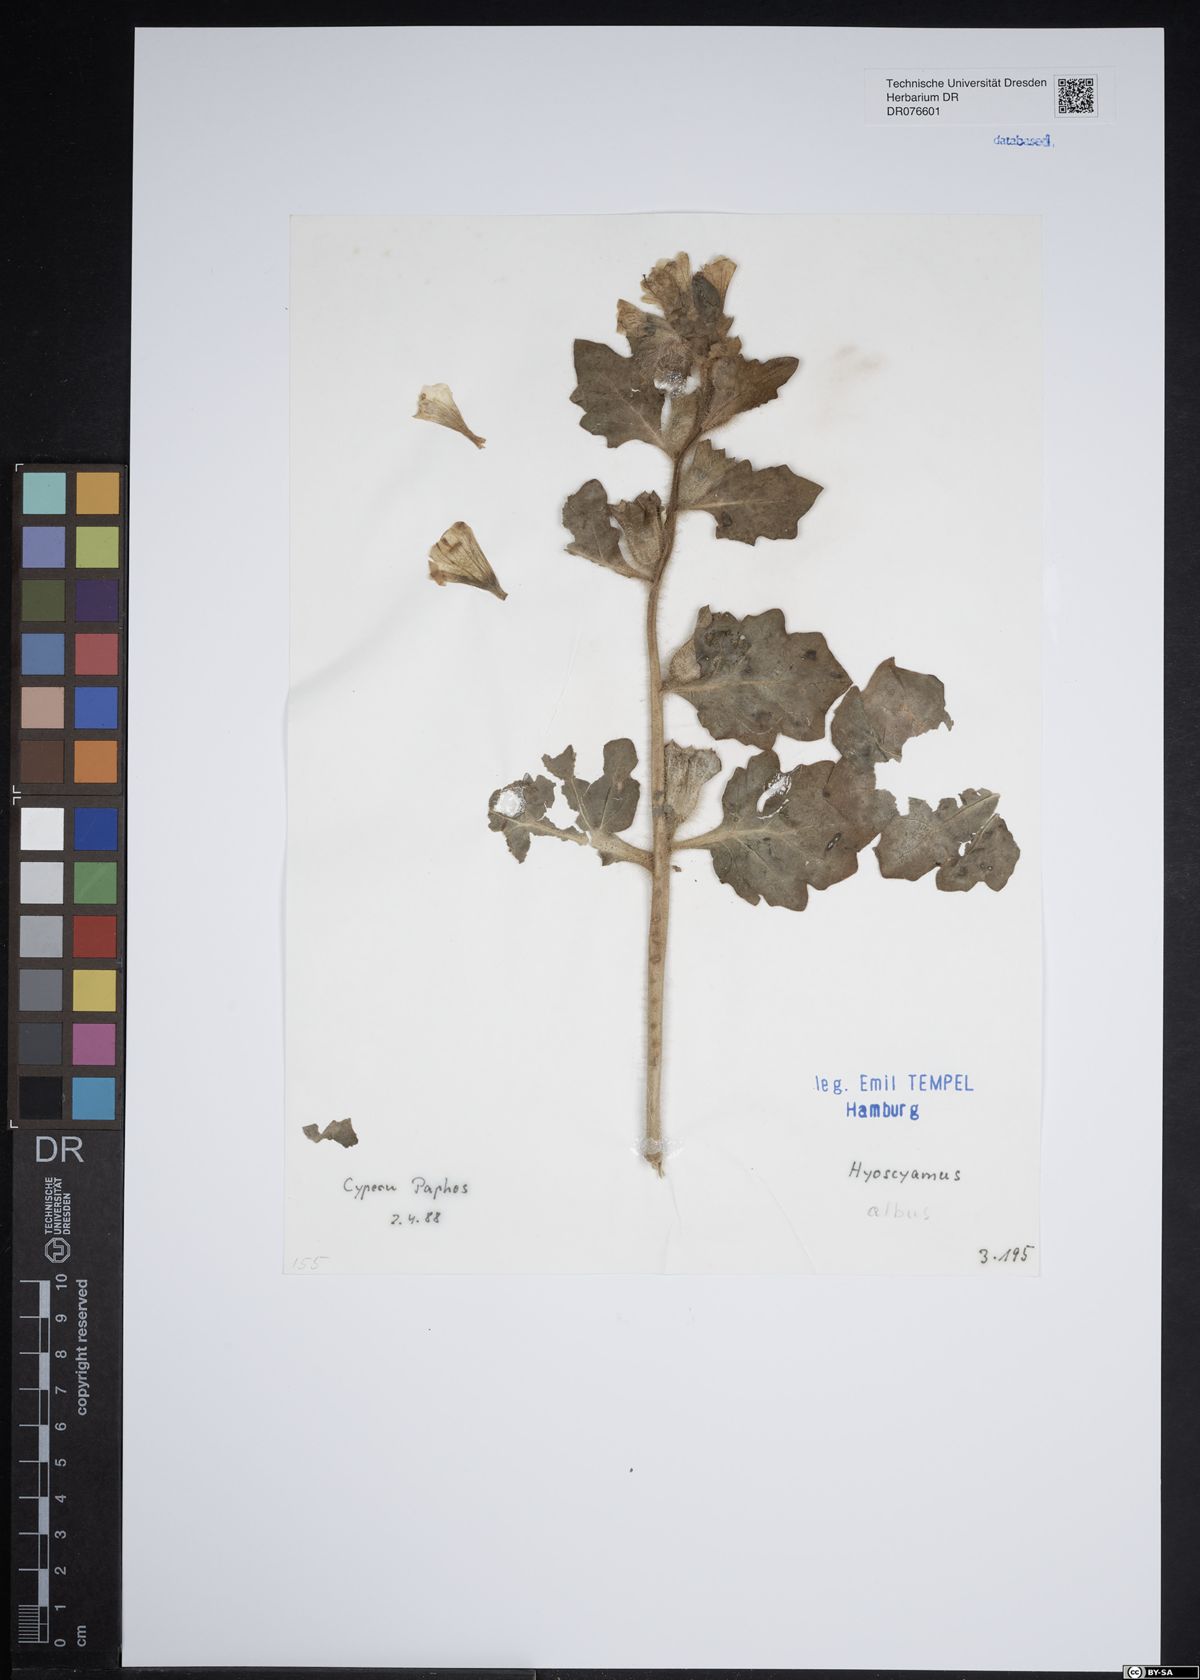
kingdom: Plantae
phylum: Tracheophyta
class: Magnoliopsida
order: Solanales
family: Solanaceae
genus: Hyoscyamus
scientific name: Hyoscyamus albus
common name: White henbane
